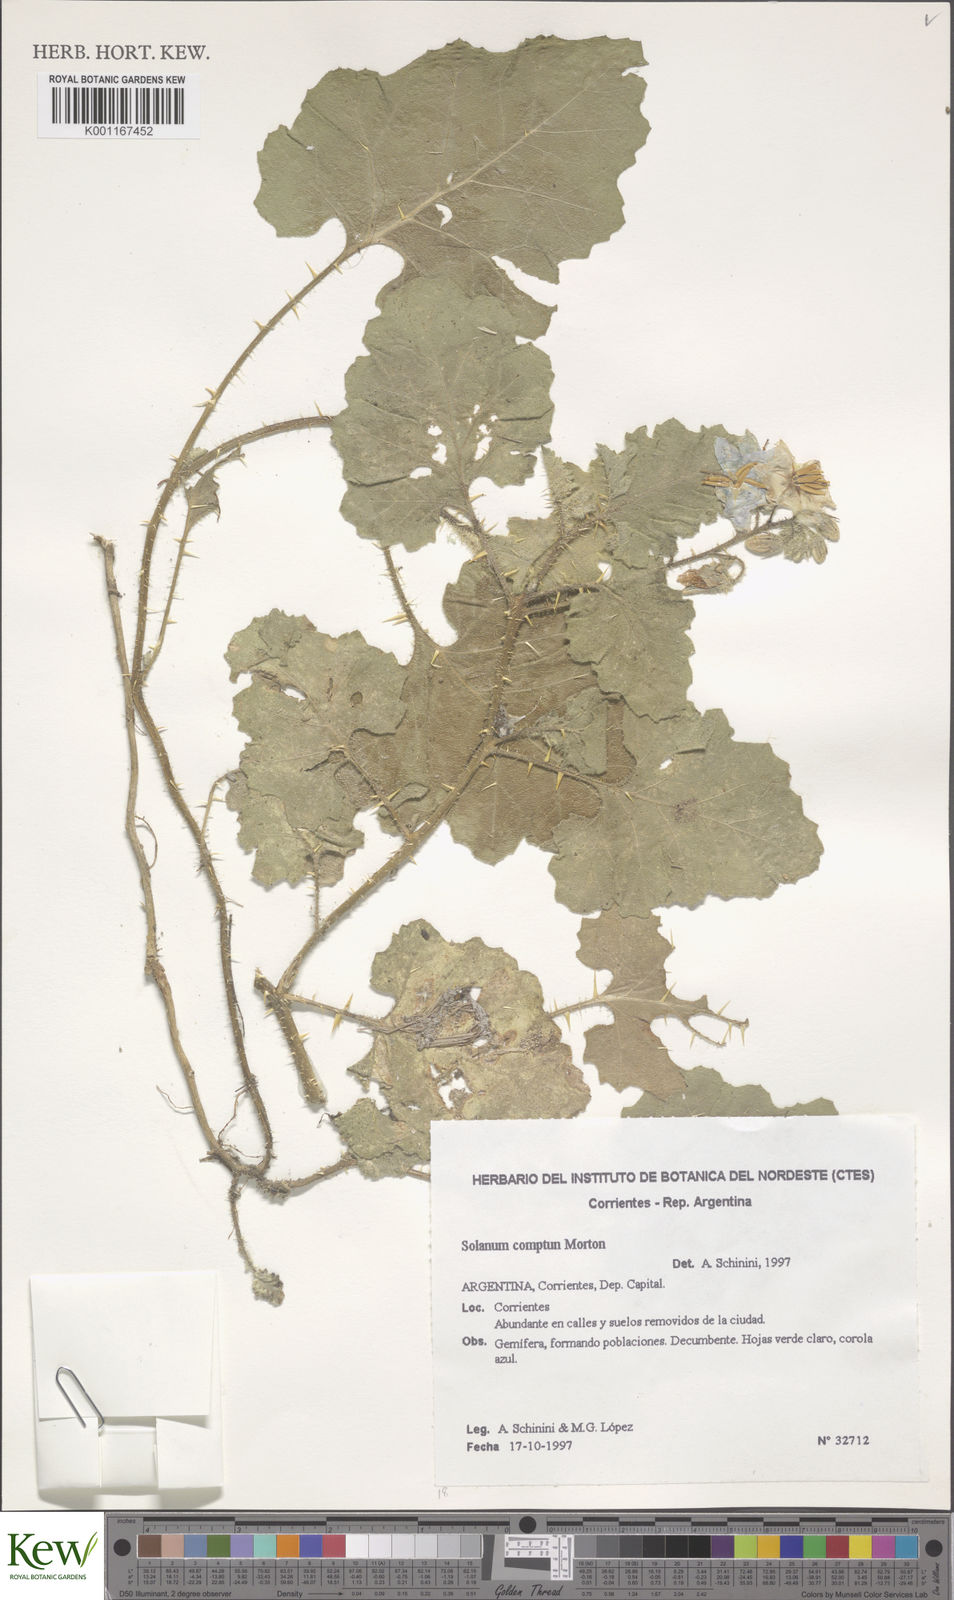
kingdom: Plantae
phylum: Tracheophyta
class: Magnoliopsida
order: Solanales
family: Solanaceae
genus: Solanum
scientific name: Solanum comptum
